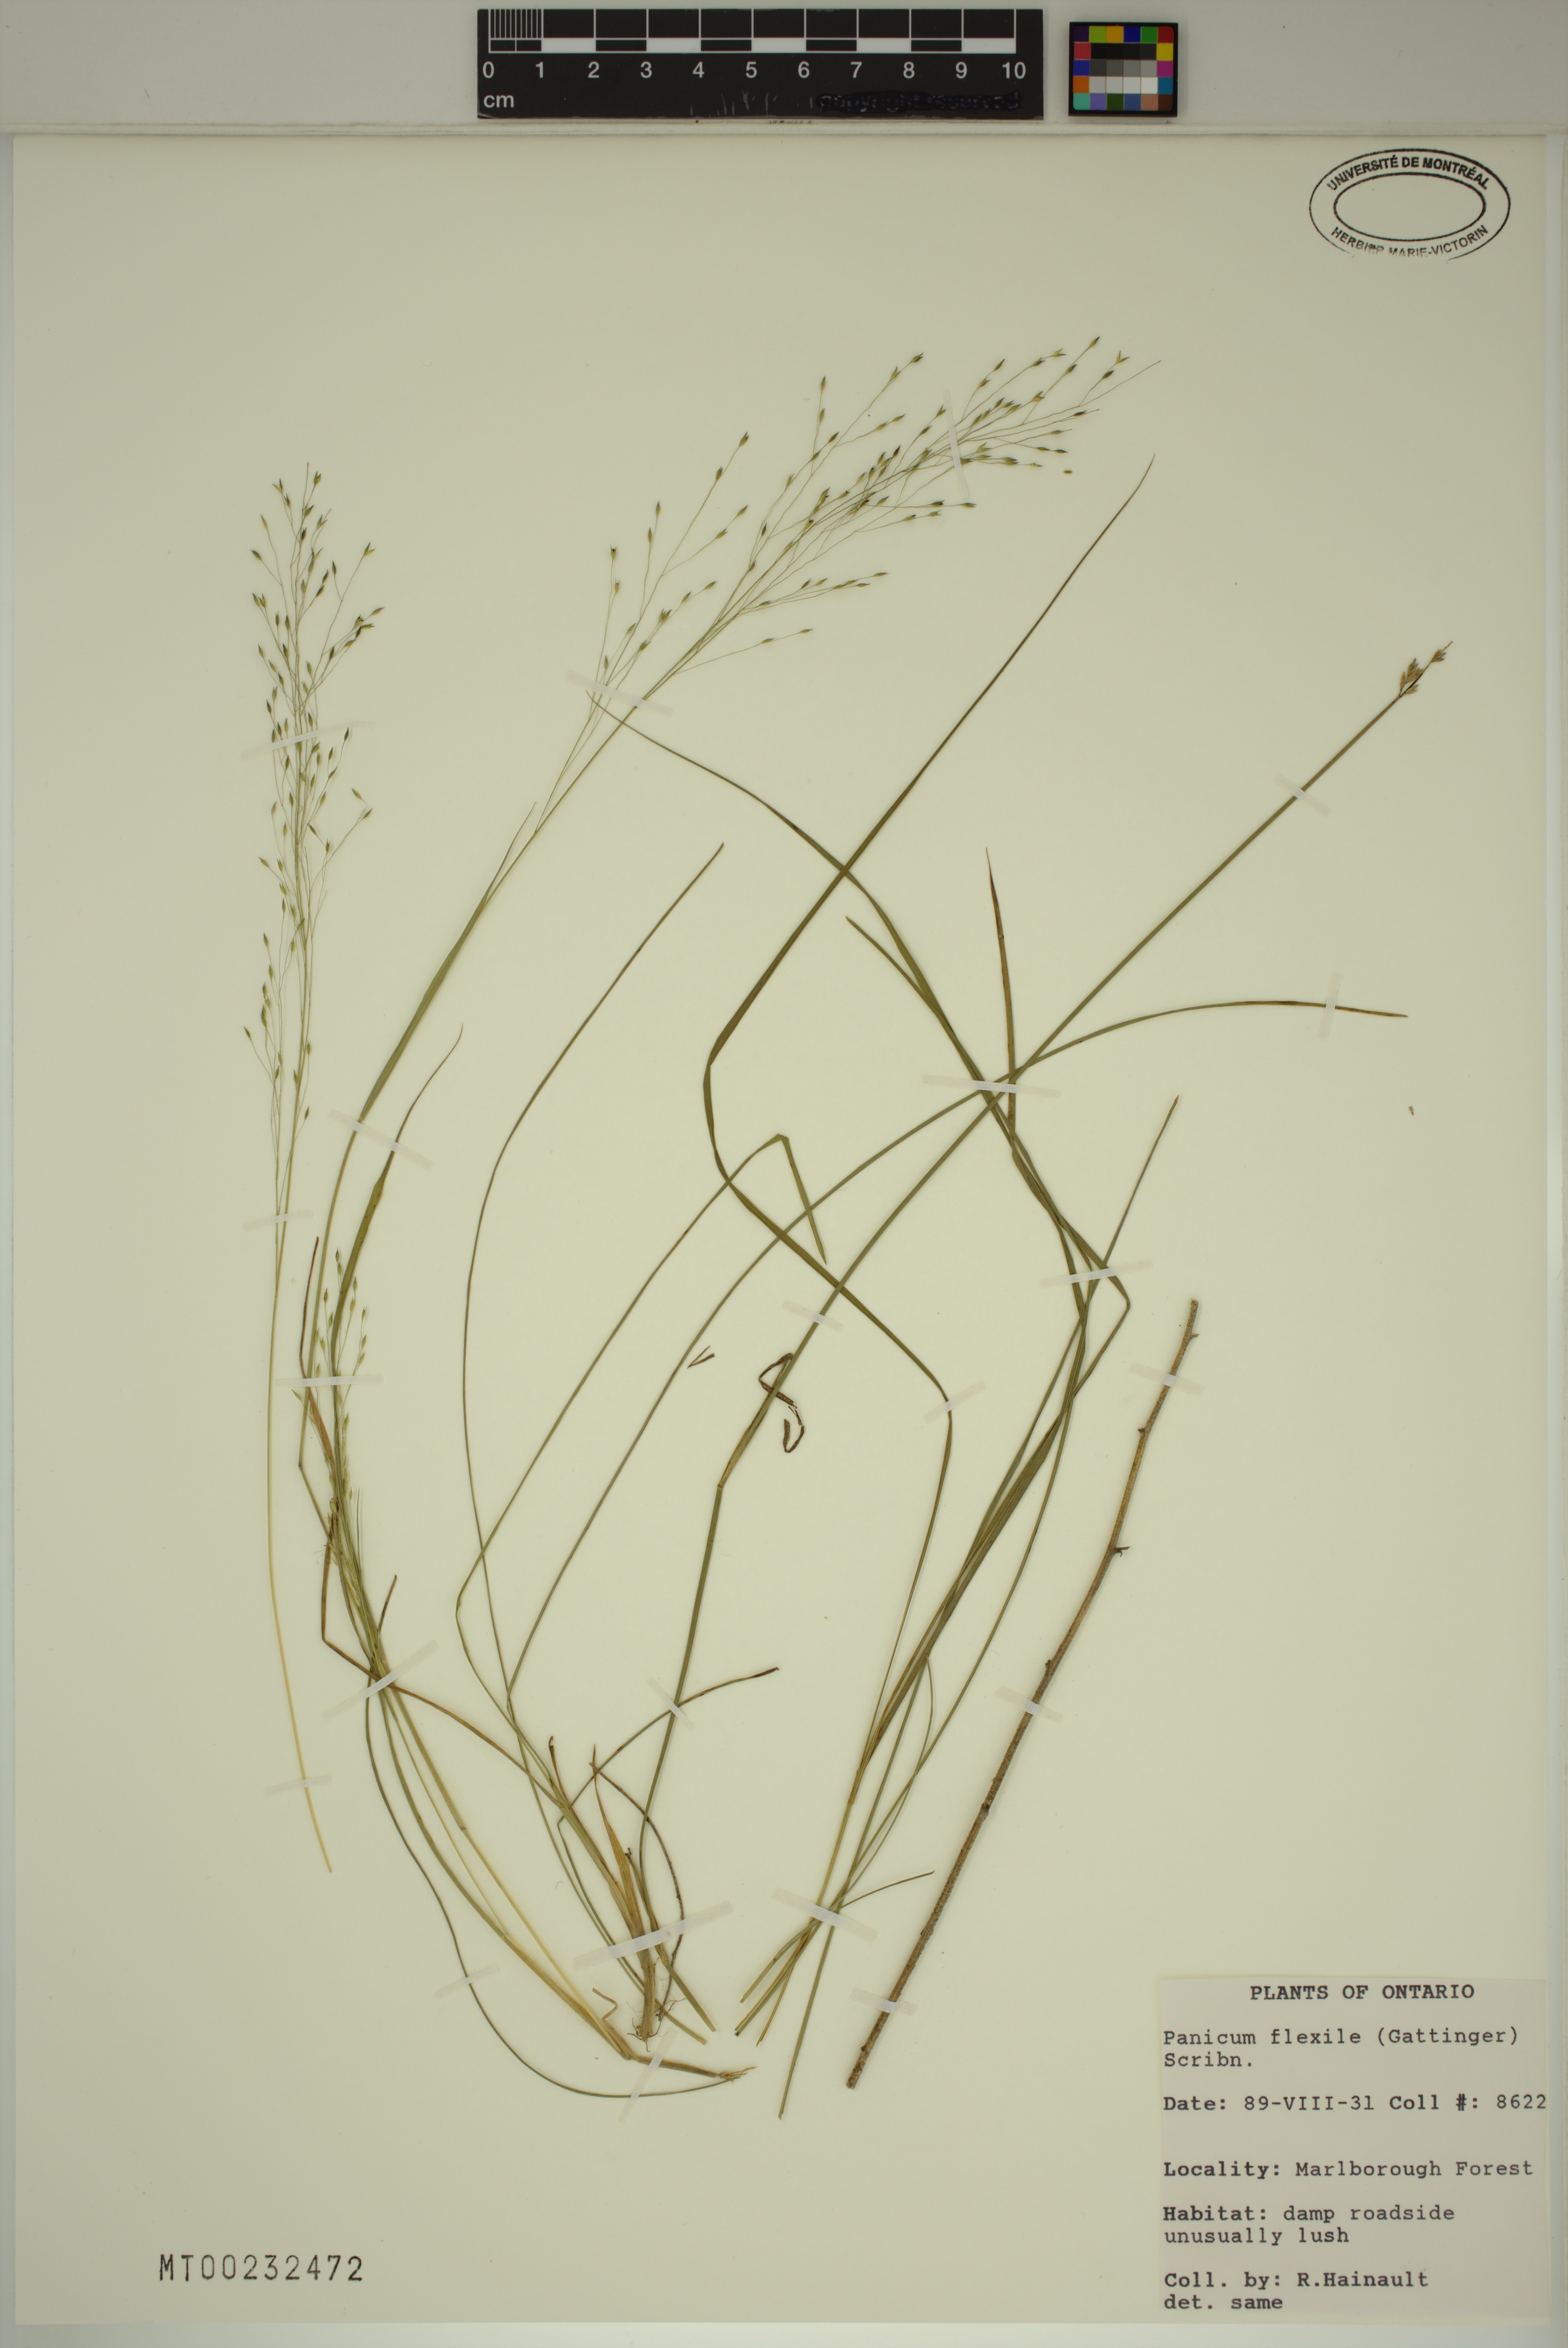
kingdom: Plantae
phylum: Tracheophyta
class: Liliopsida
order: Poales
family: Poaceae
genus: Panicum
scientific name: Panicum flexile
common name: Wiry panicgrass
